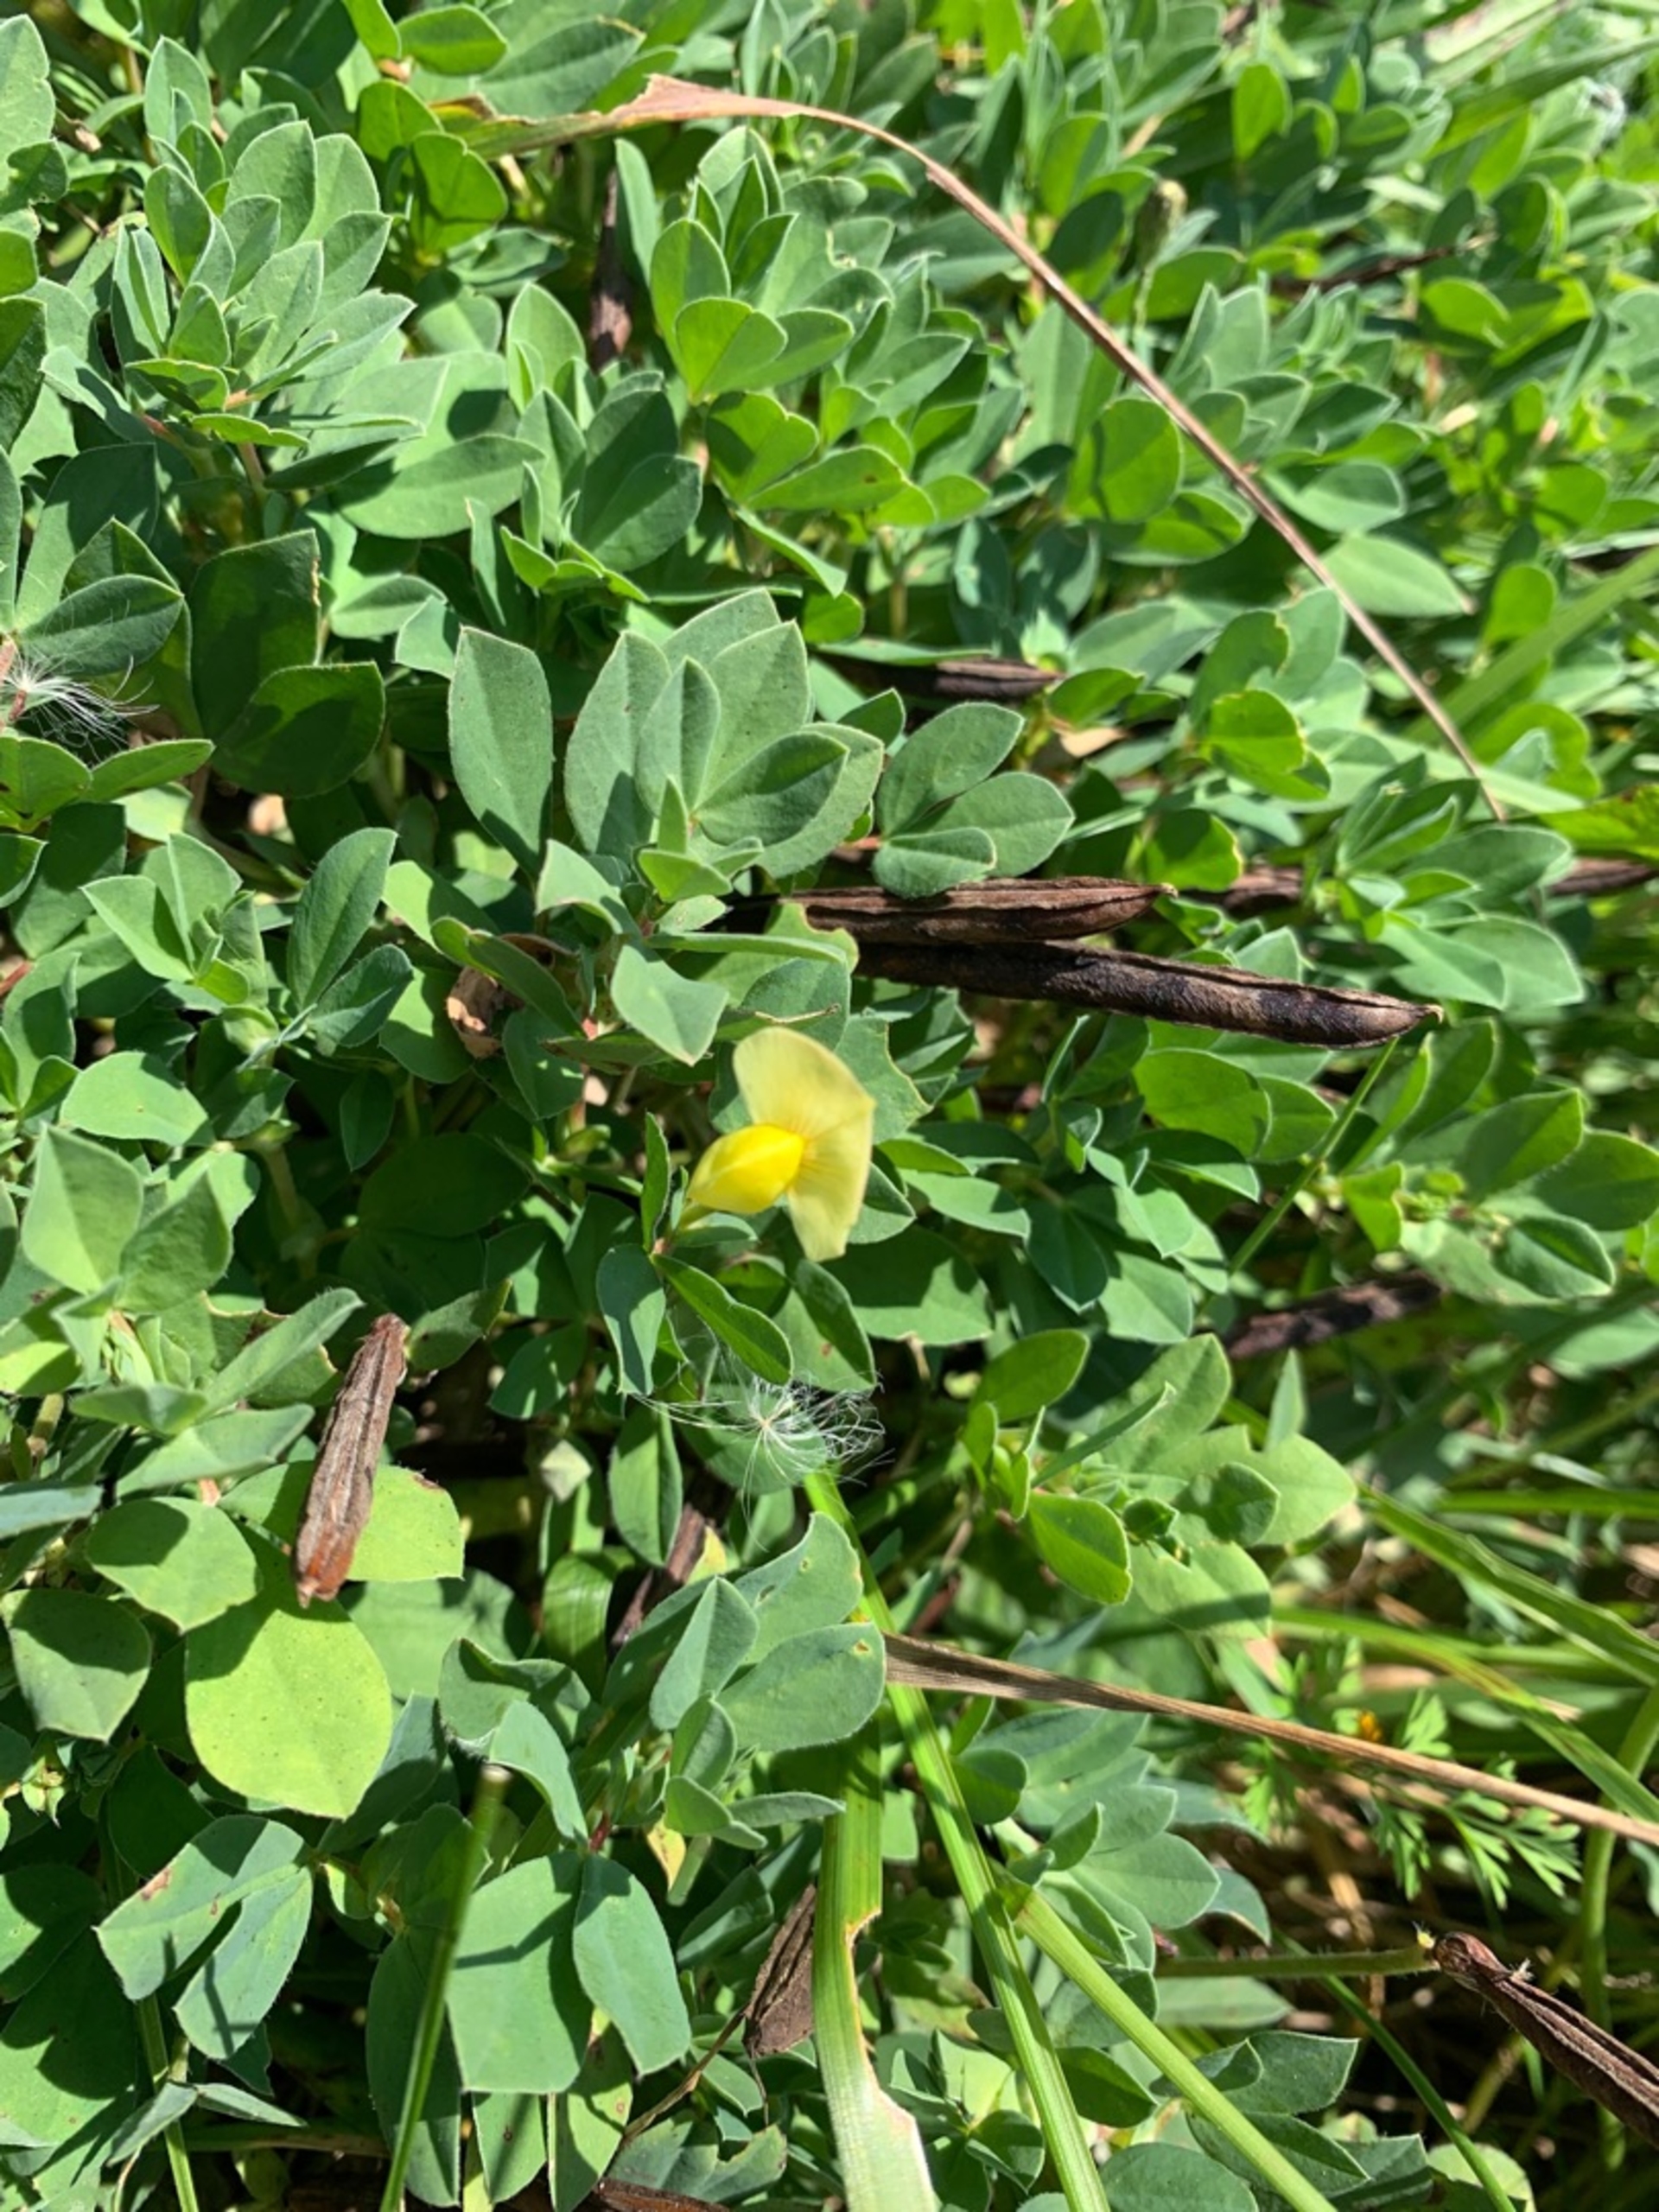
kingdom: Plantae
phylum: Tracheophyta
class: Magnoliopsida
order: Fabales
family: Fabaceae
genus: Lotus
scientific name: Lotus maritimus
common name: Kantbælg
